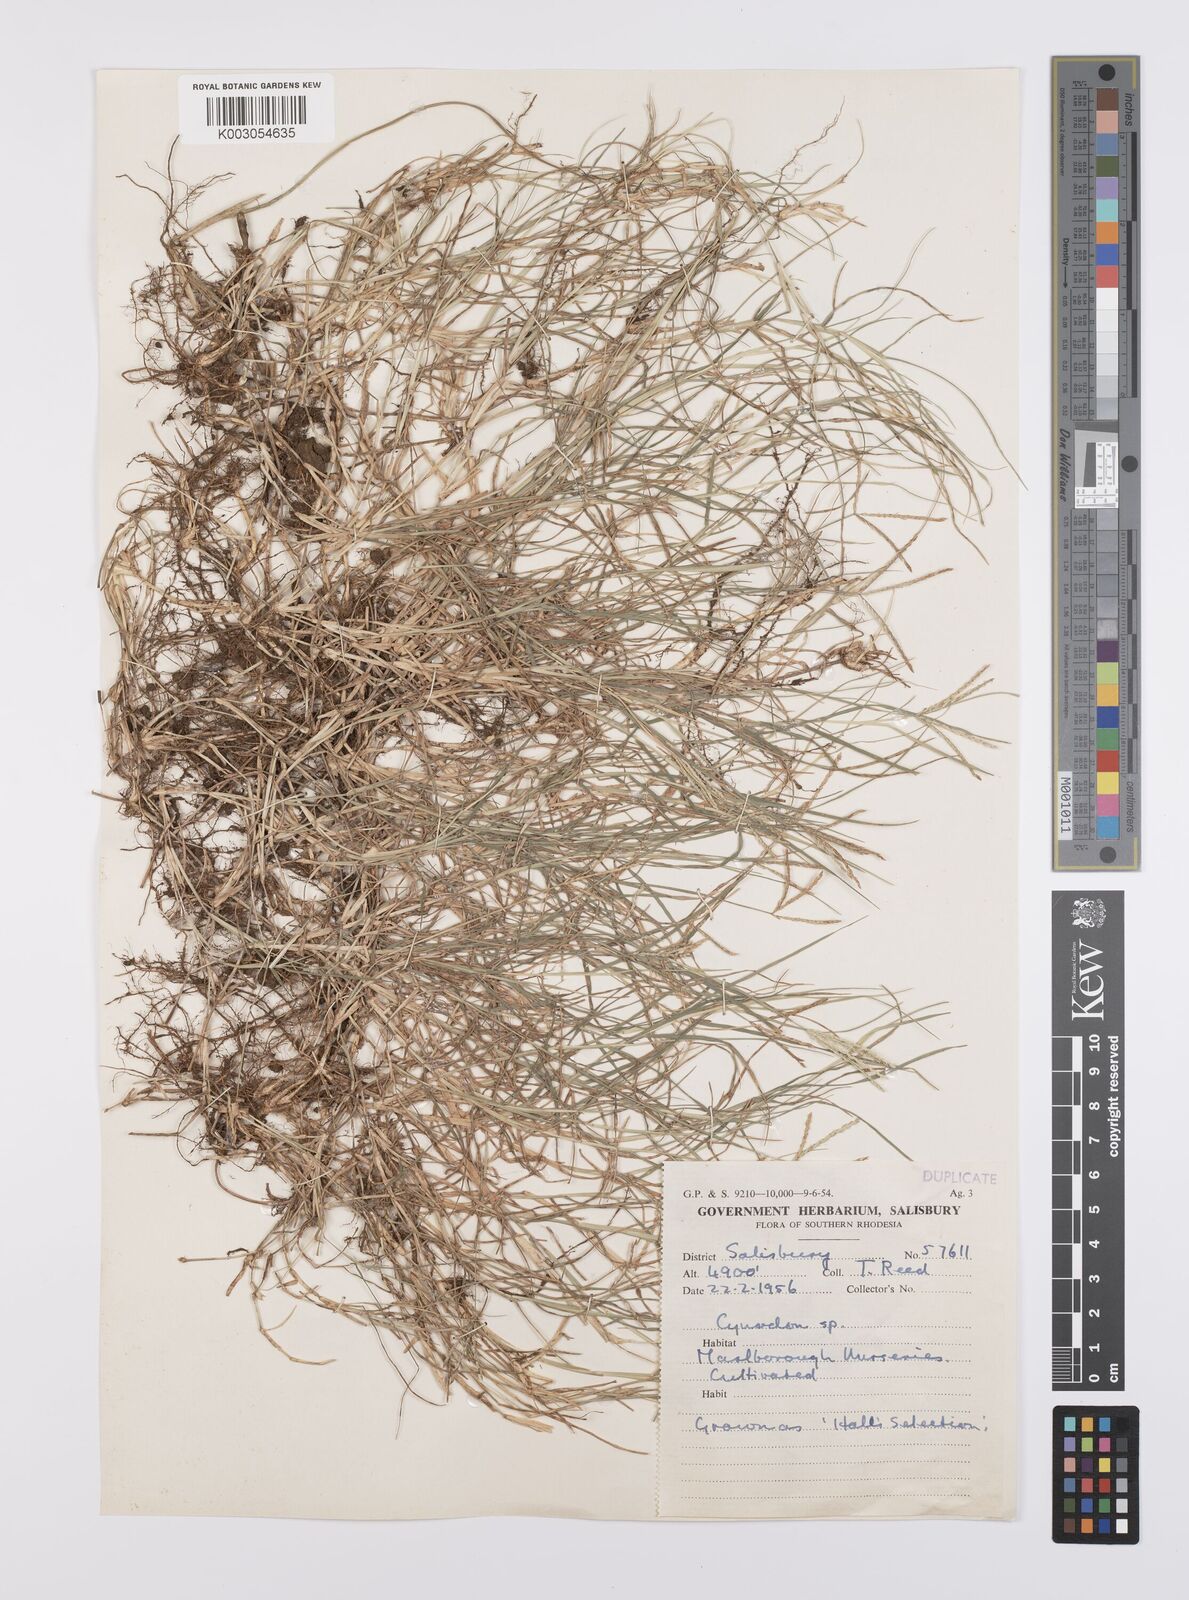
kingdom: Plantae
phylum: Tracheophyta
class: Liliopsida
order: Poales
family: Poaceae
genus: Cynodon
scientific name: Cynodon dactylon
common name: Bermuda grass
